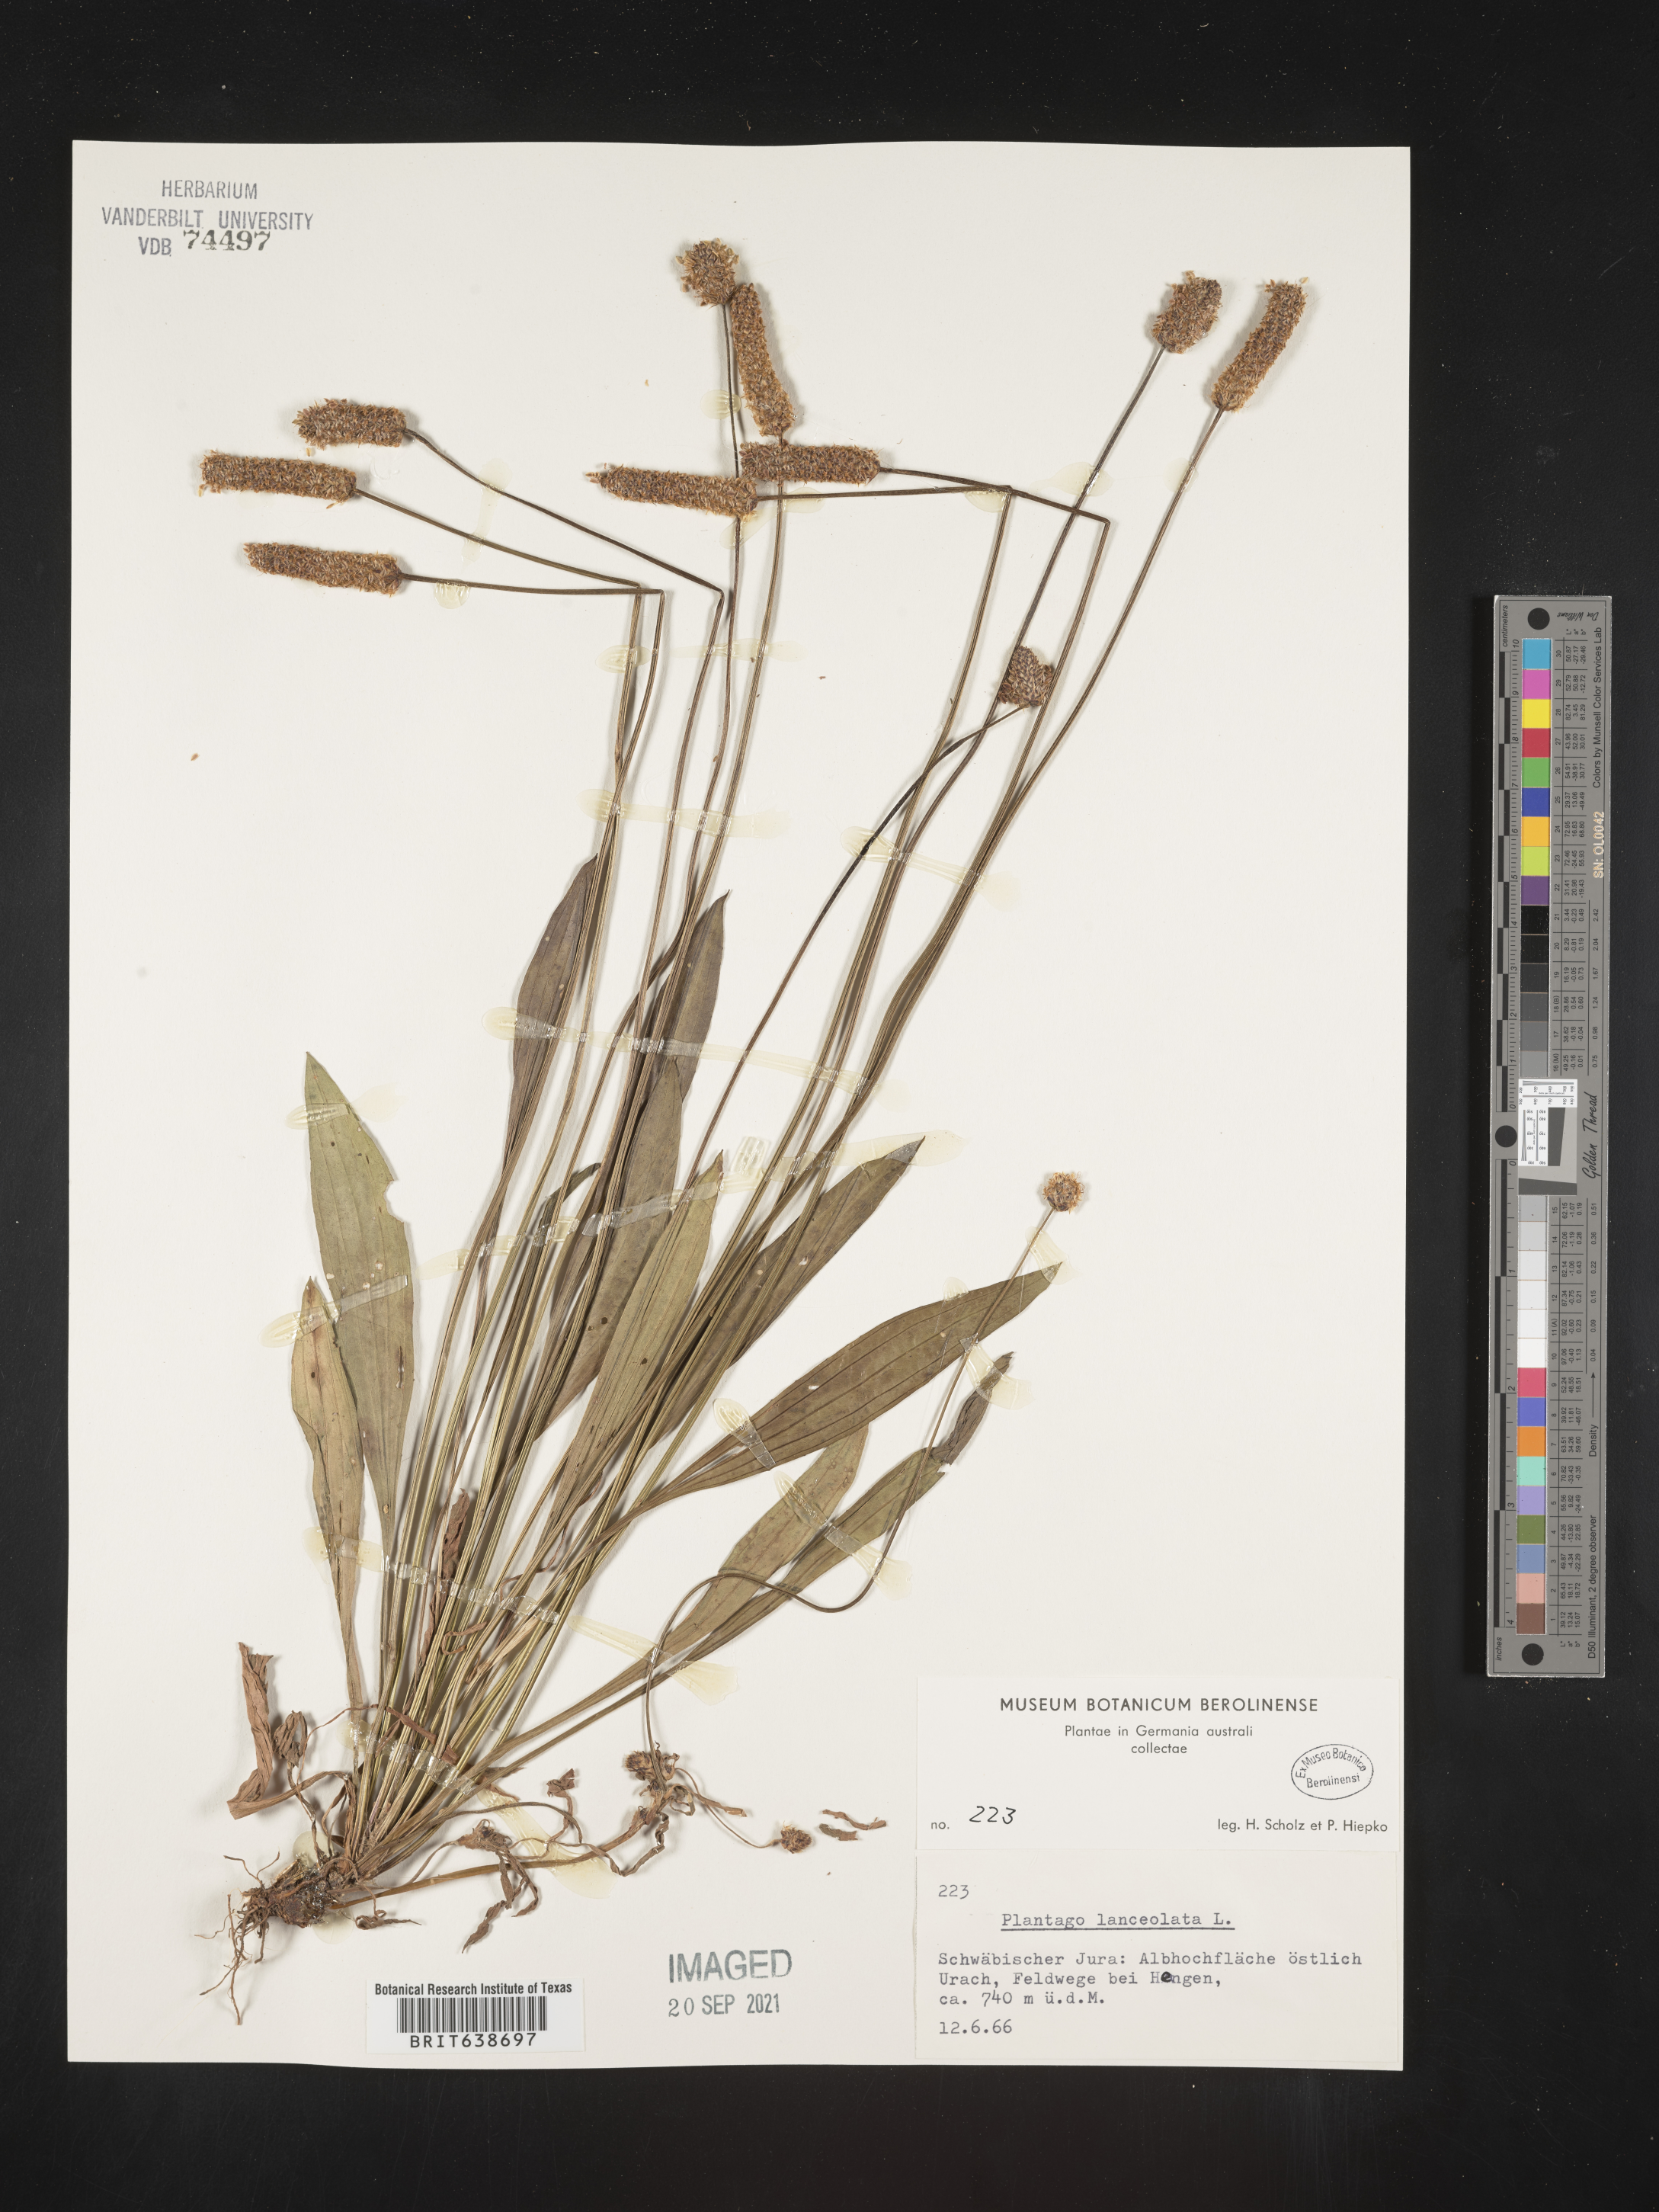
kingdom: Plantae
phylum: Tracheophyta
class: Magnoliopsida
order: Lamiales
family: Plantaginaceae
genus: Plantago
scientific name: Plantago
